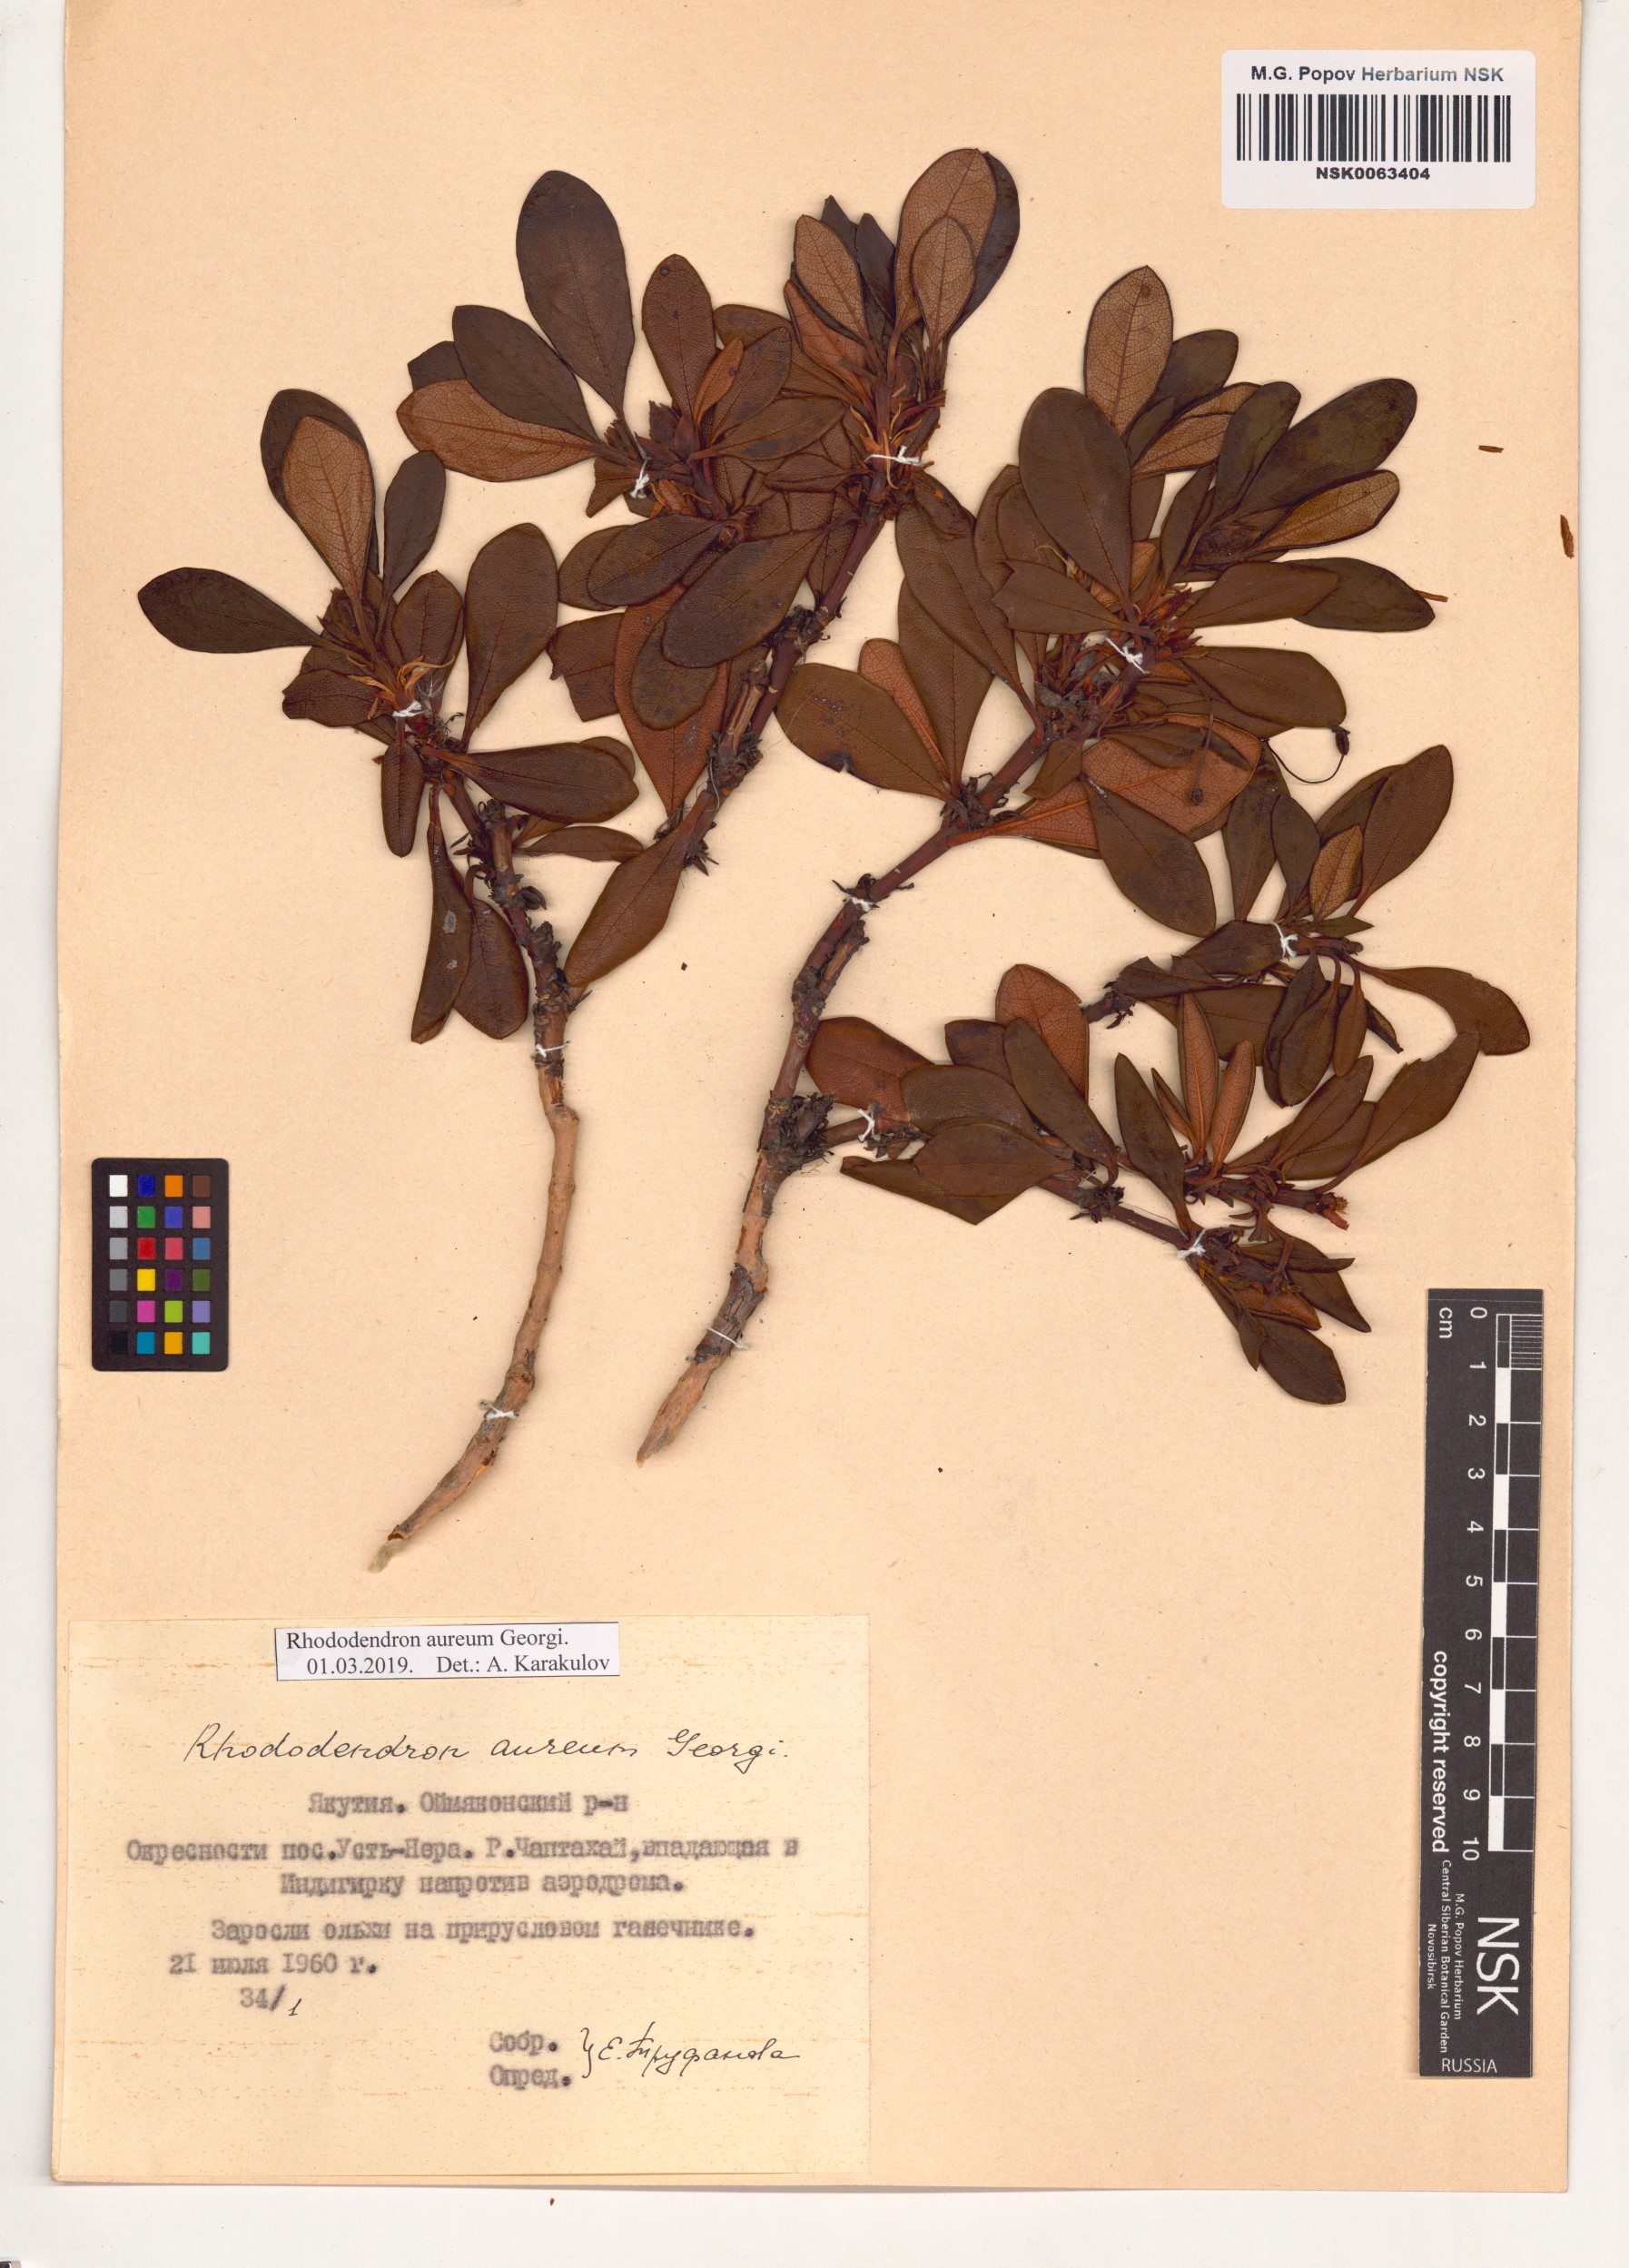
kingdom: Plantae
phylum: Tracheophyta
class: Magnoliopsida
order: Ericales
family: Ericaceae
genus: Rhododendron
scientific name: Rhododendron aureum
